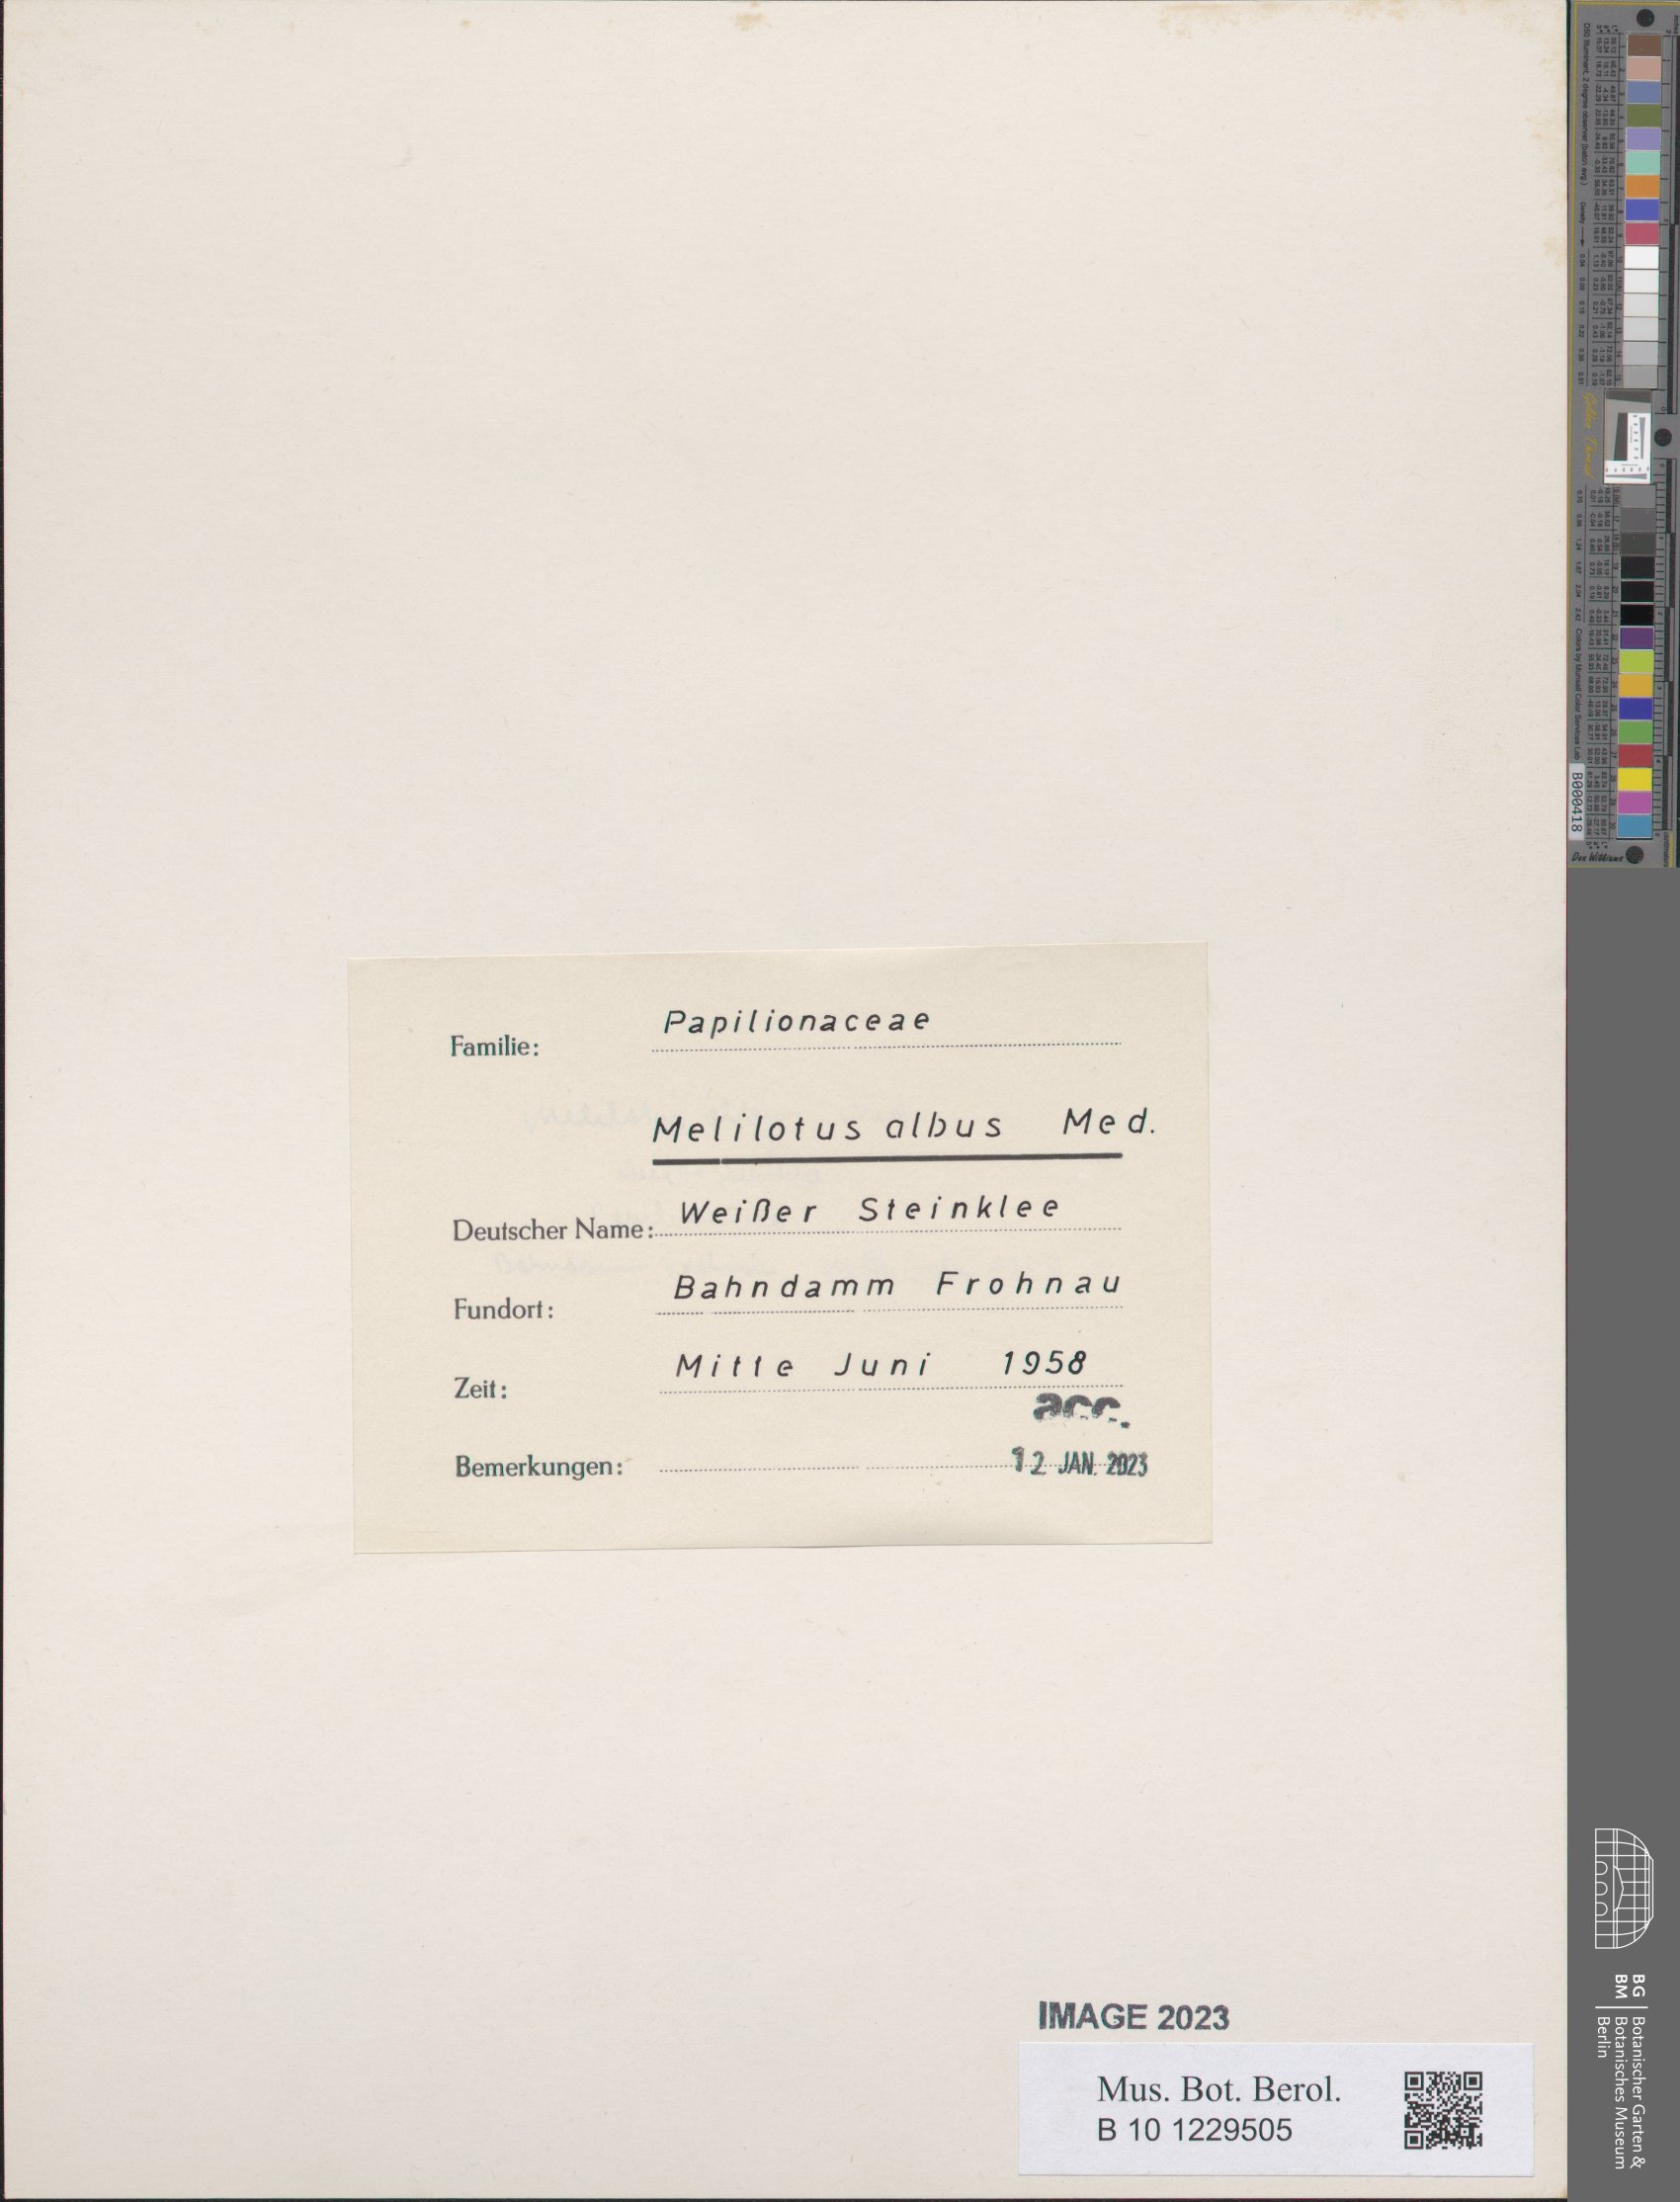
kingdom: Plantae
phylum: Tracheophyta
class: Magnoliopsida
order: Fabales
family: Fabaceae
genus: Melilotus
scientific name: Melilotus albus
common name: White melilot
